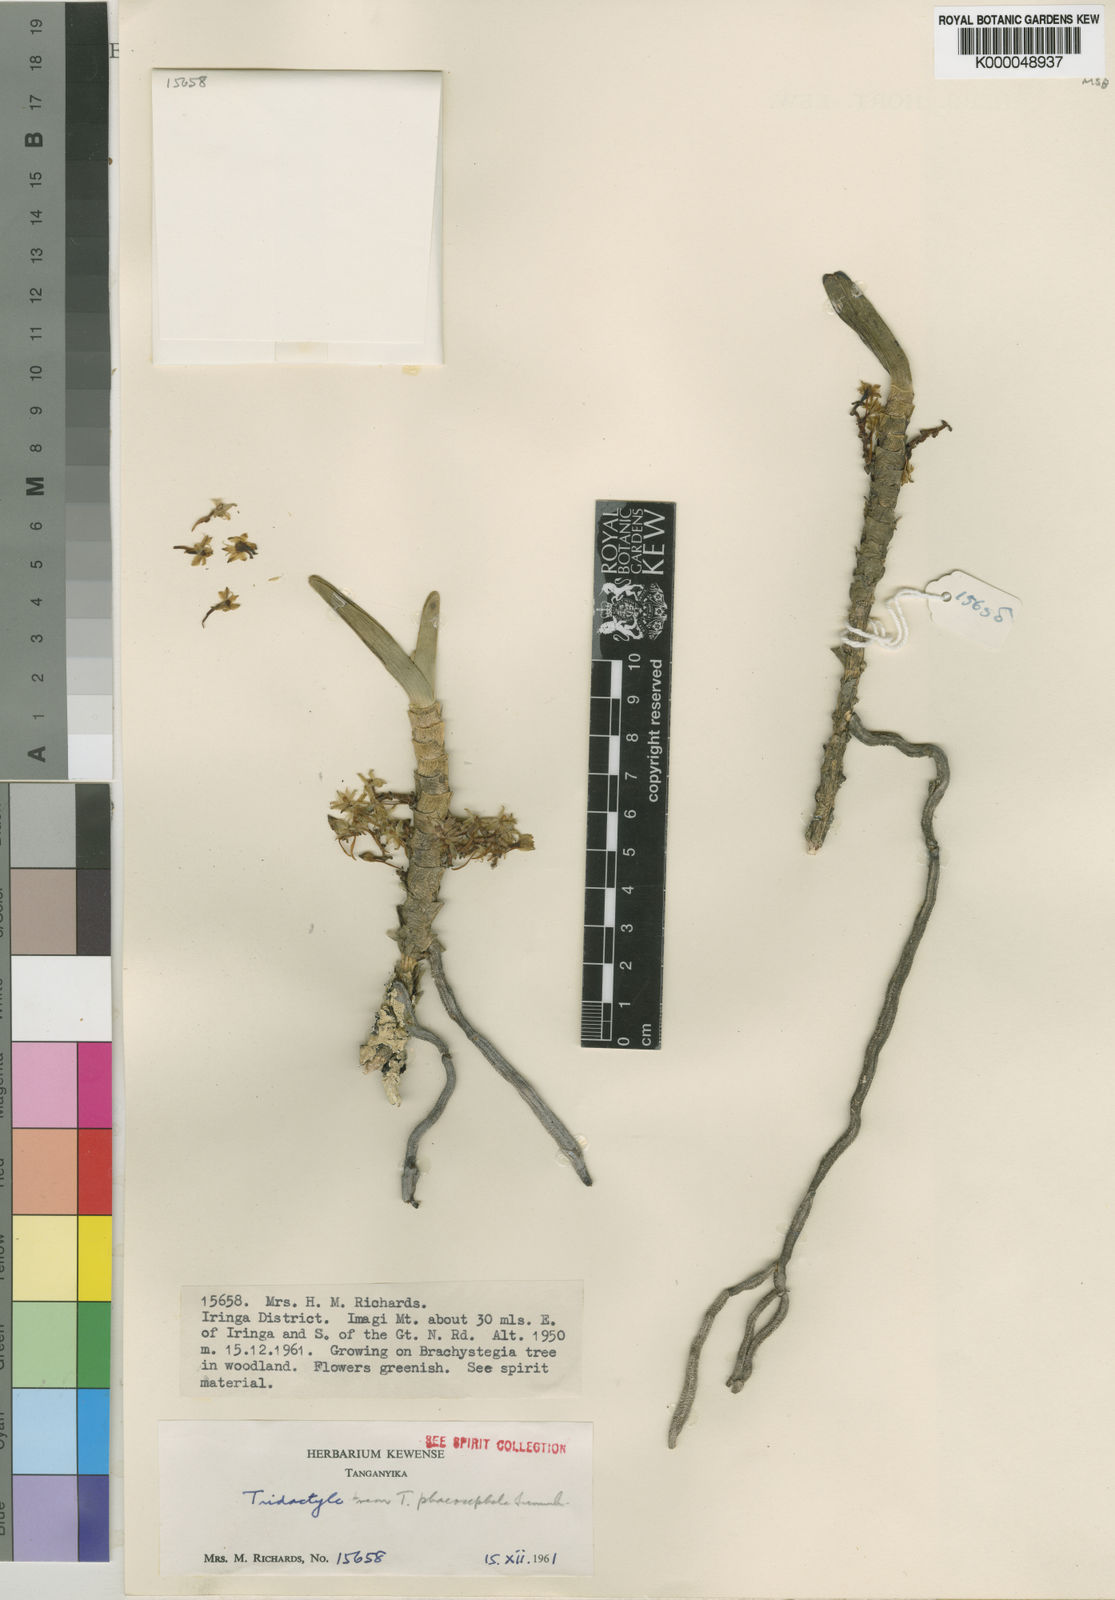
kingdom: Plantae
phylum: Tracheophyta
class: Liliopsida
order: Asparagales
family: Orchidaceae
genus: Tridactyle
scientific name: Tridactyle verrucosa
